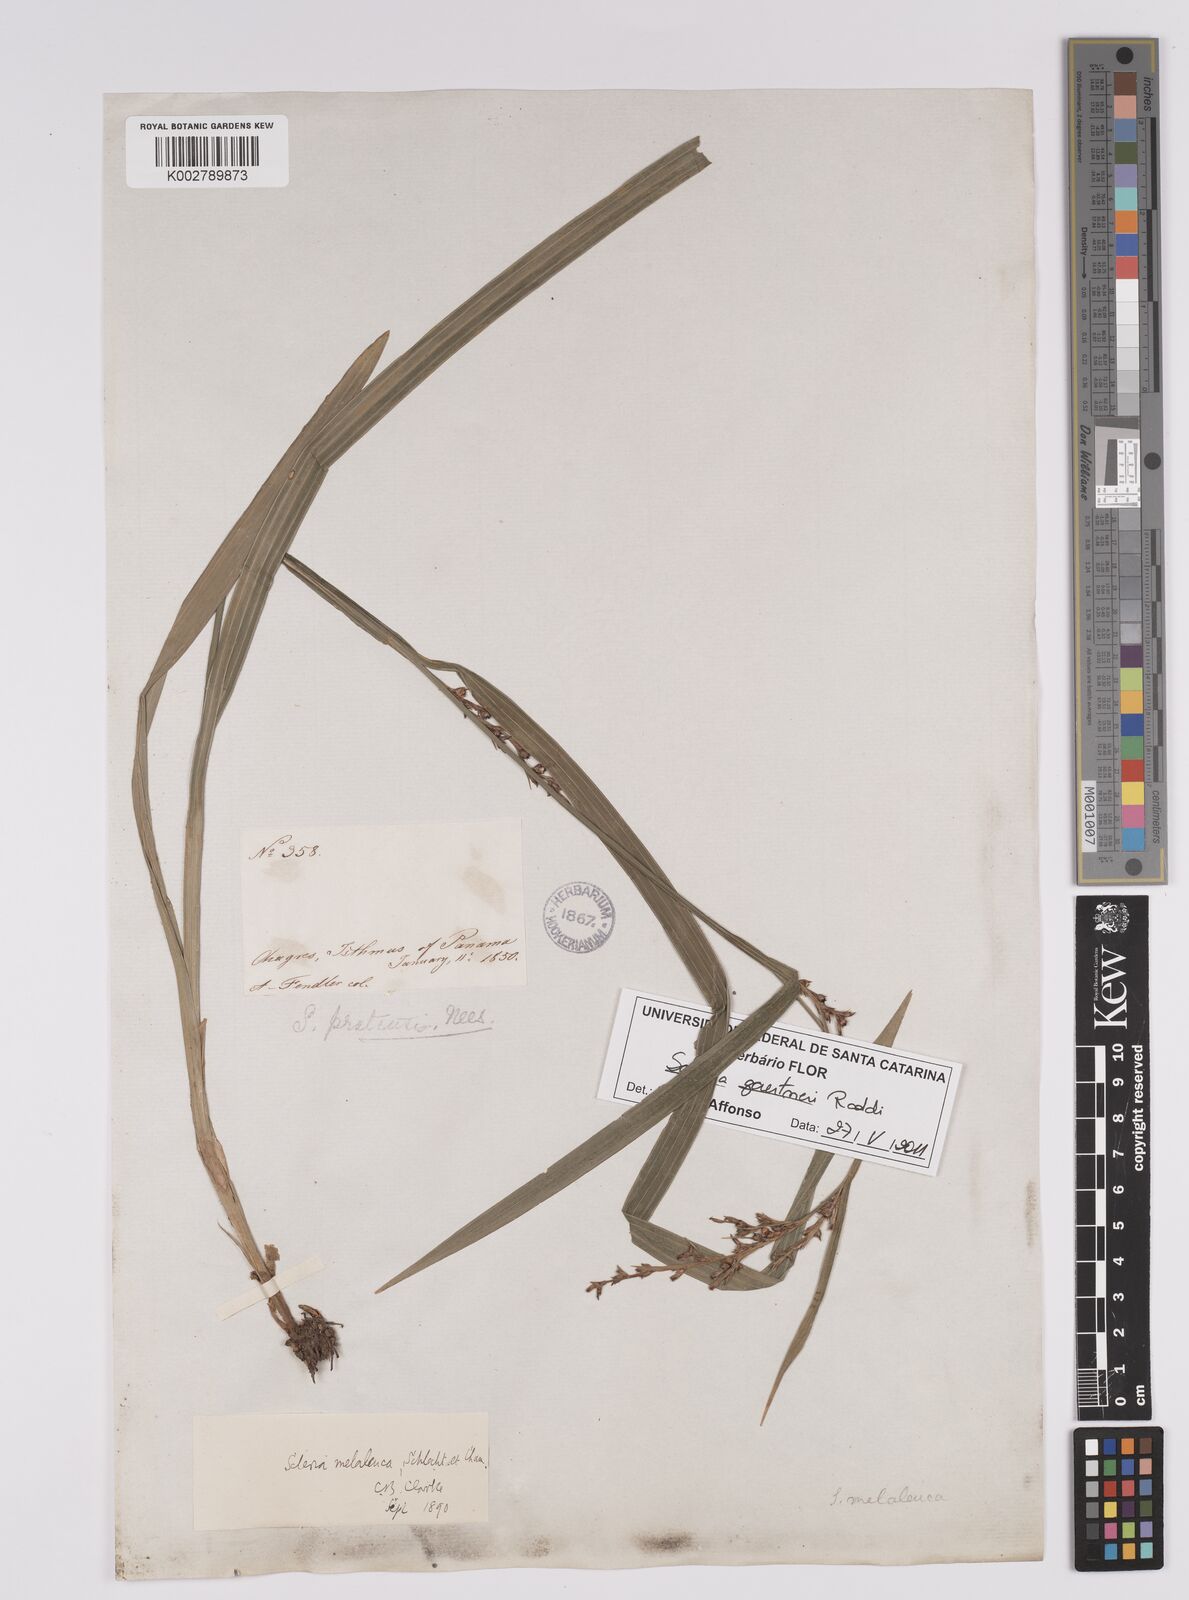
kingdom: Plantae
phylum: Tracheophyta
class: Liliopsida
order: Poales
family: Cyperaceae
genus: Scleria
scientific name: Scleria gaertneri
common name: Cortadera blanca
